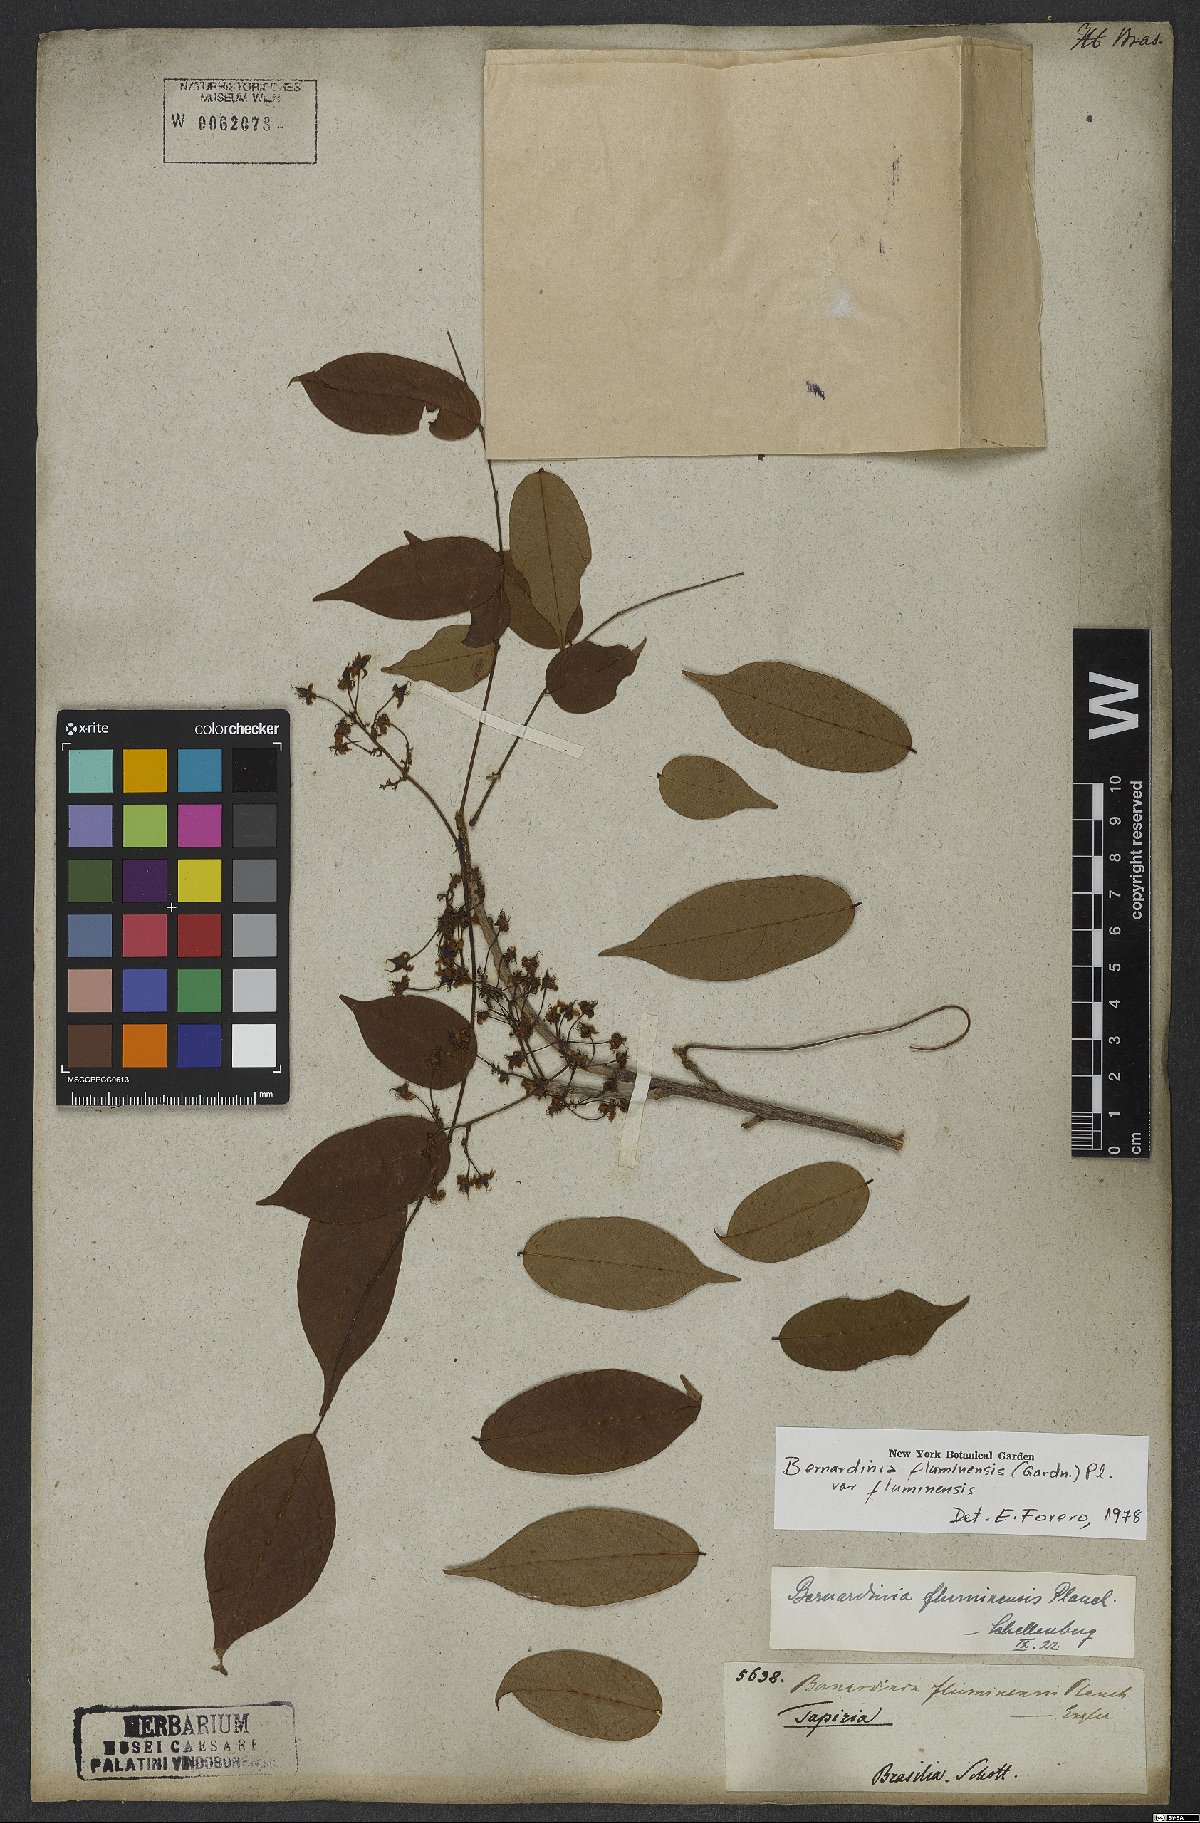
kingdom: Plantae
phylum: Tracheophyta
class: Magnoliopsida
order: Oxalidales
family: Connaraceae
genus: Rourea
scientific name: Rourea fluminensis
